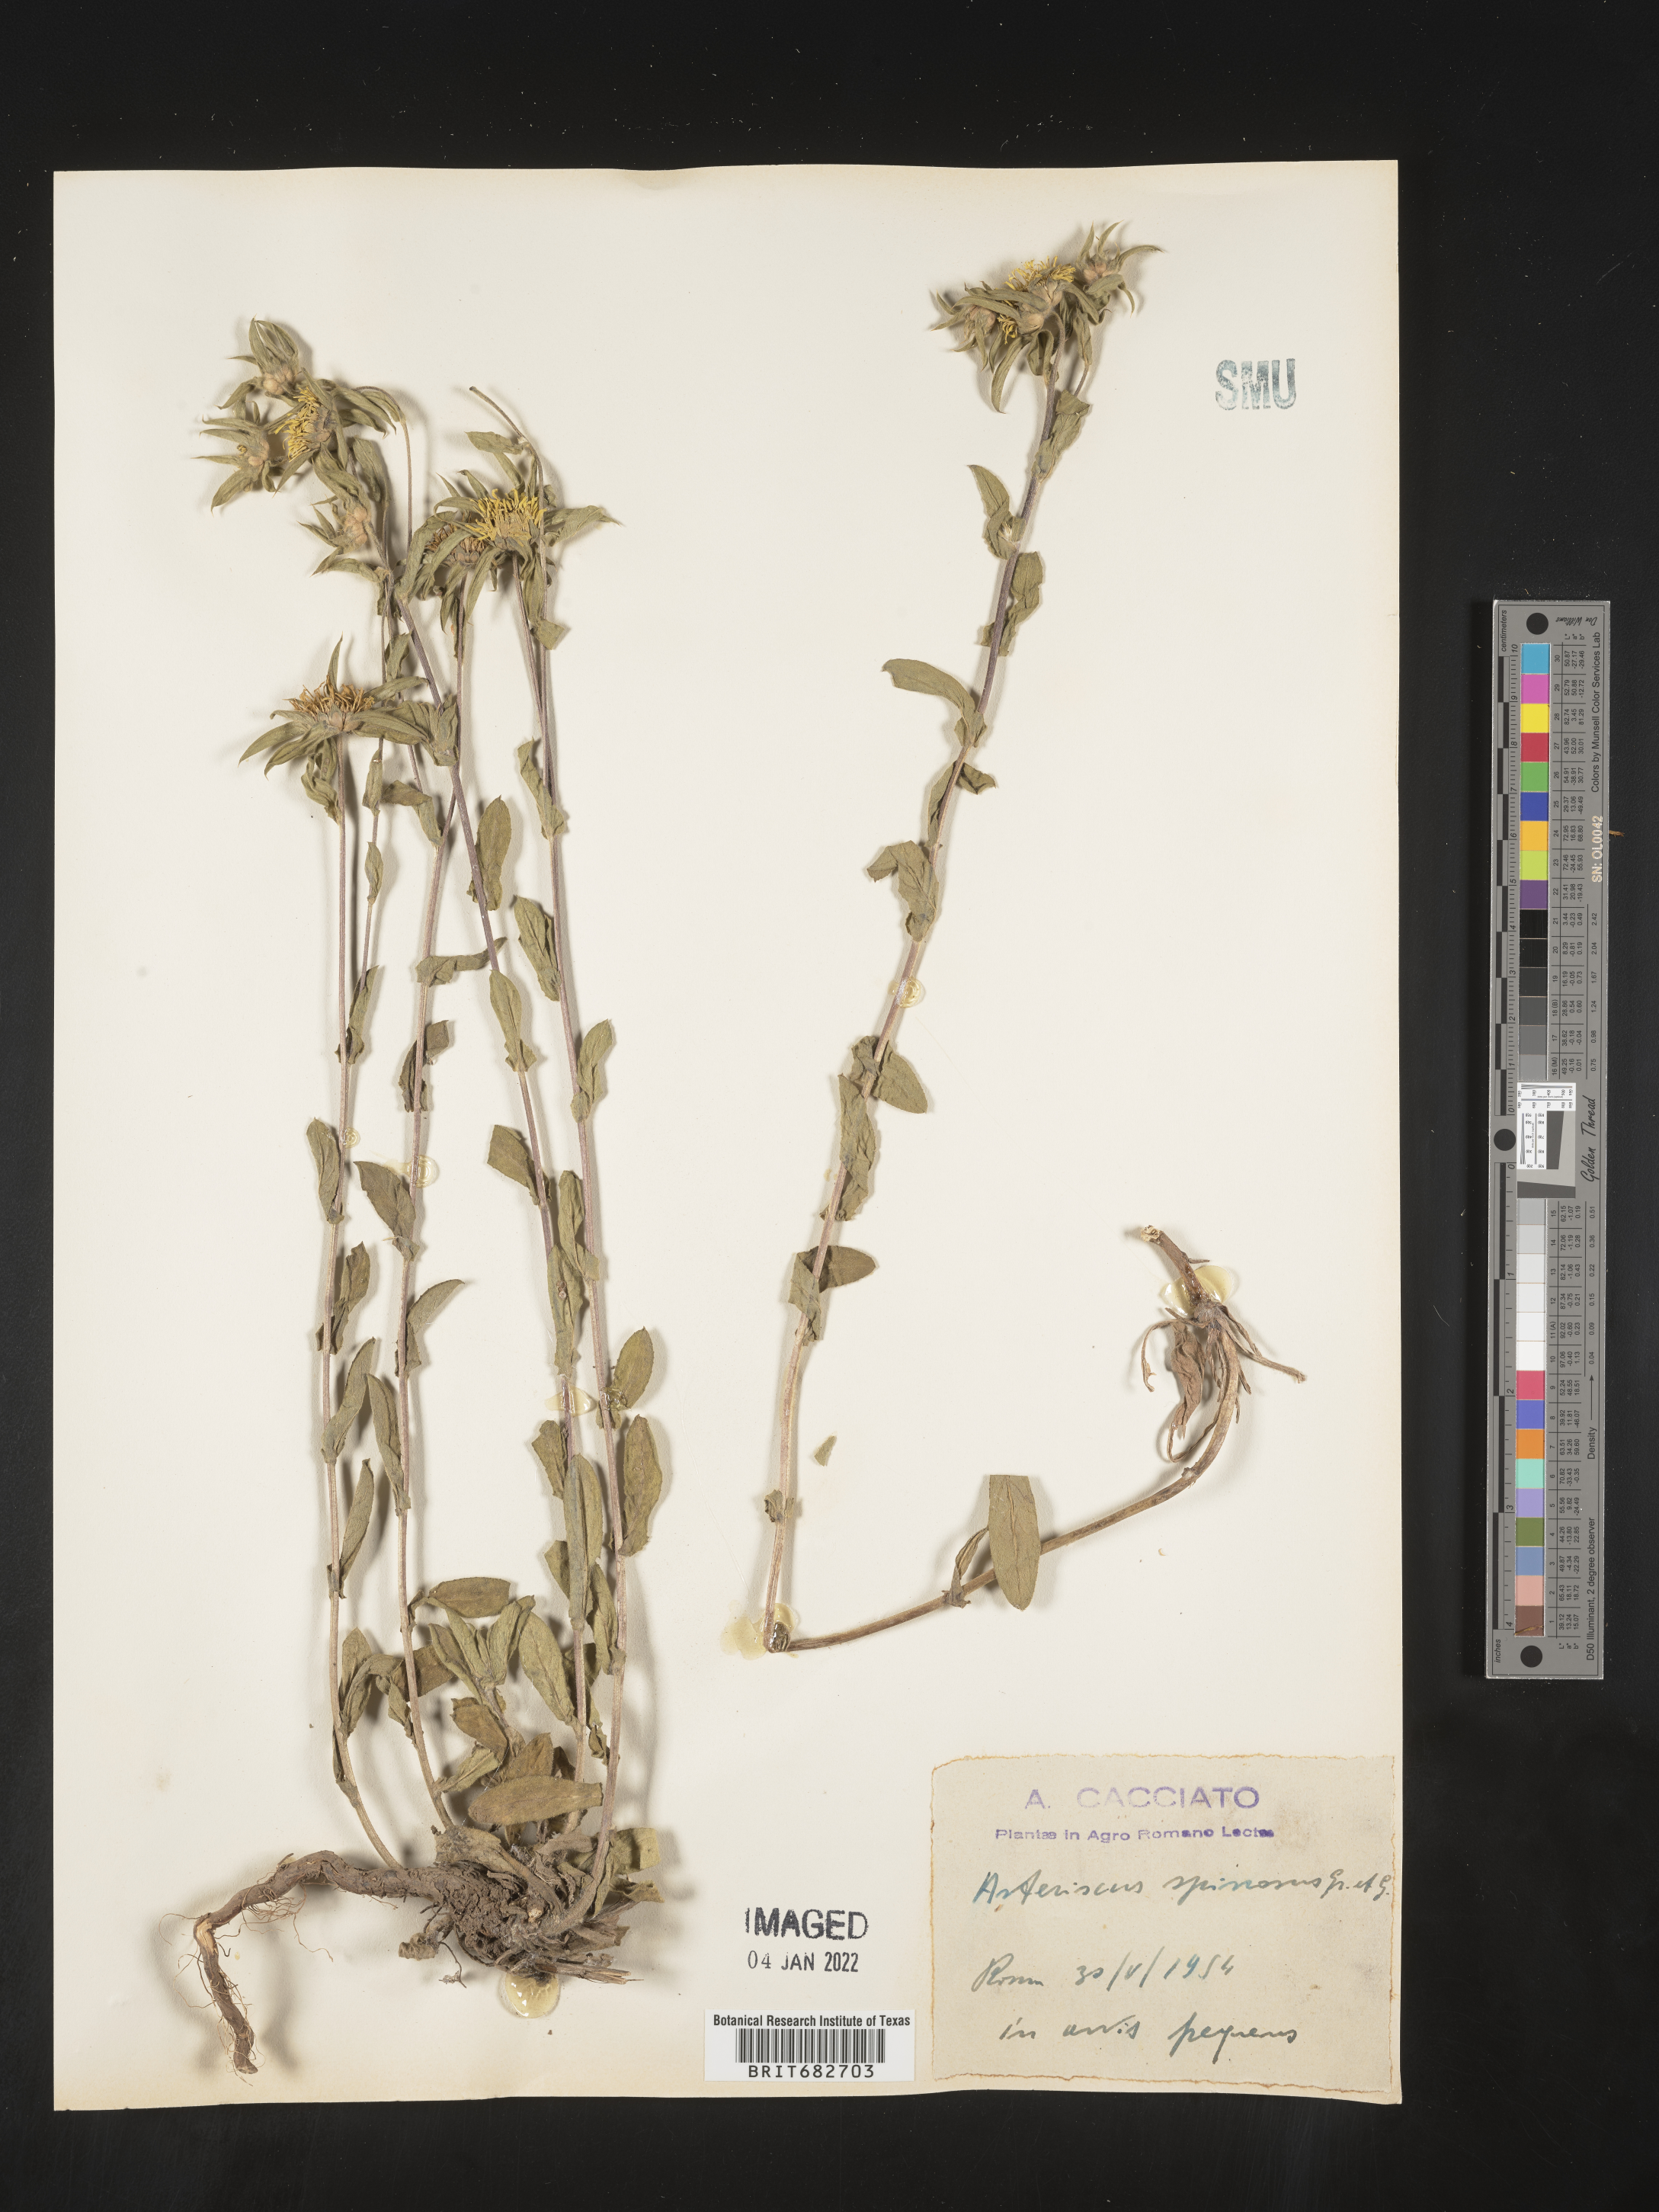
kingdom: Plantae
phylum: Tracheophyta
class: Magnoliopsida
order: Asterales
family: Asteraceae
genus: Asteriscus
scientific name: Asteriscus
